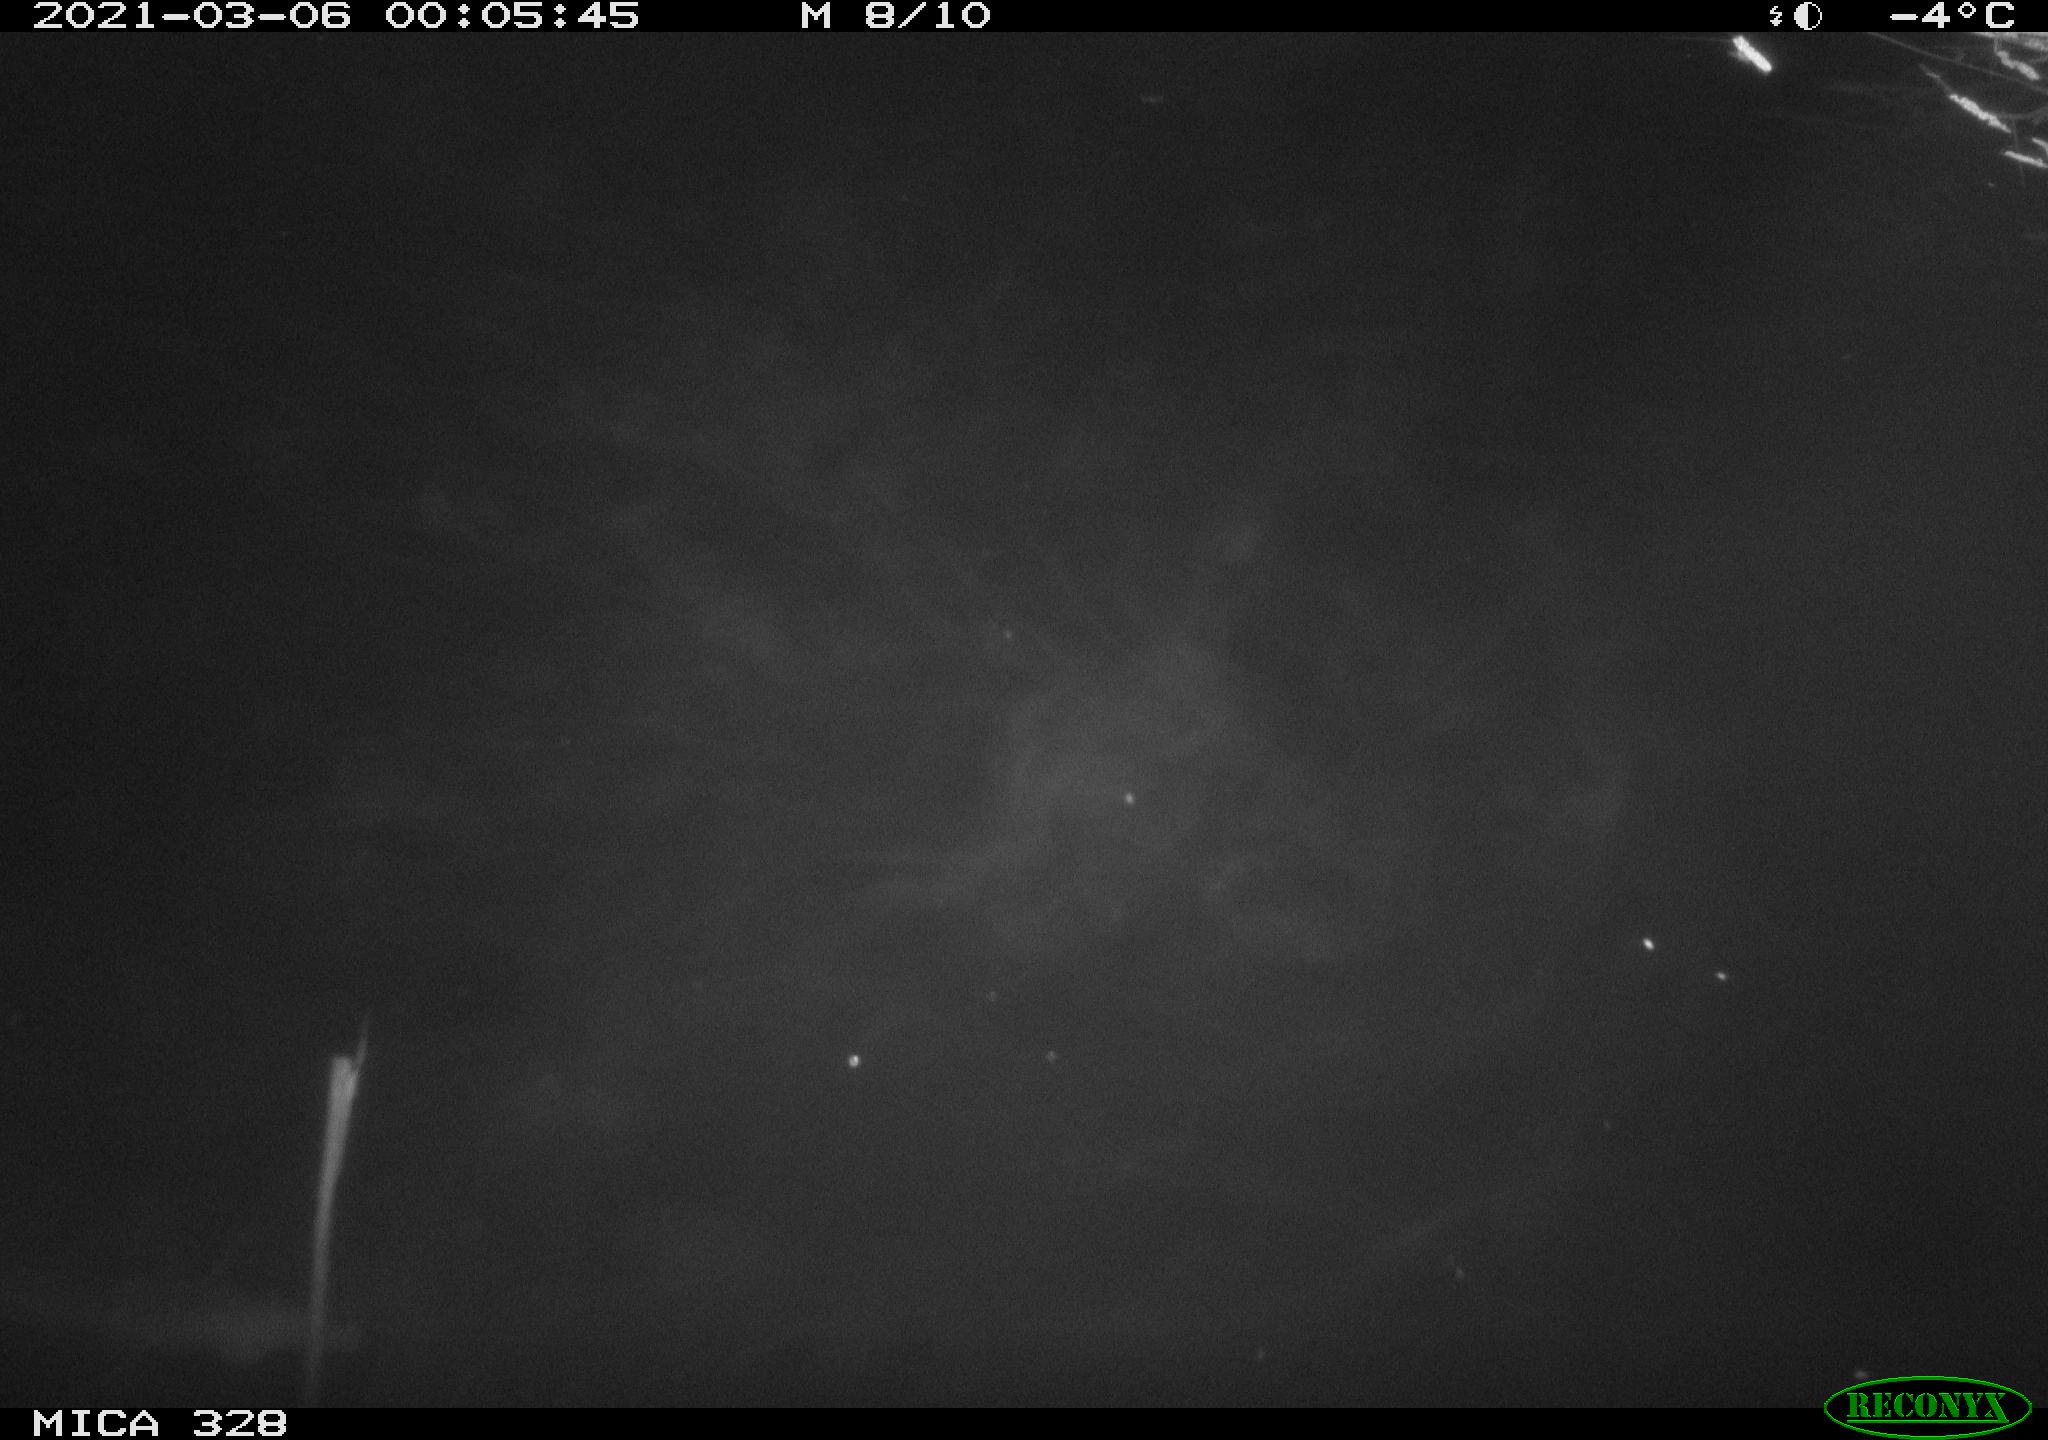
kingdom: Animalia
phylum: Chordata
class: Mammalia
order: Rodentia
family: Cricetidae
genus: Ondatra
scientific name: Ondatra zibethicus
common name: Muskrat
